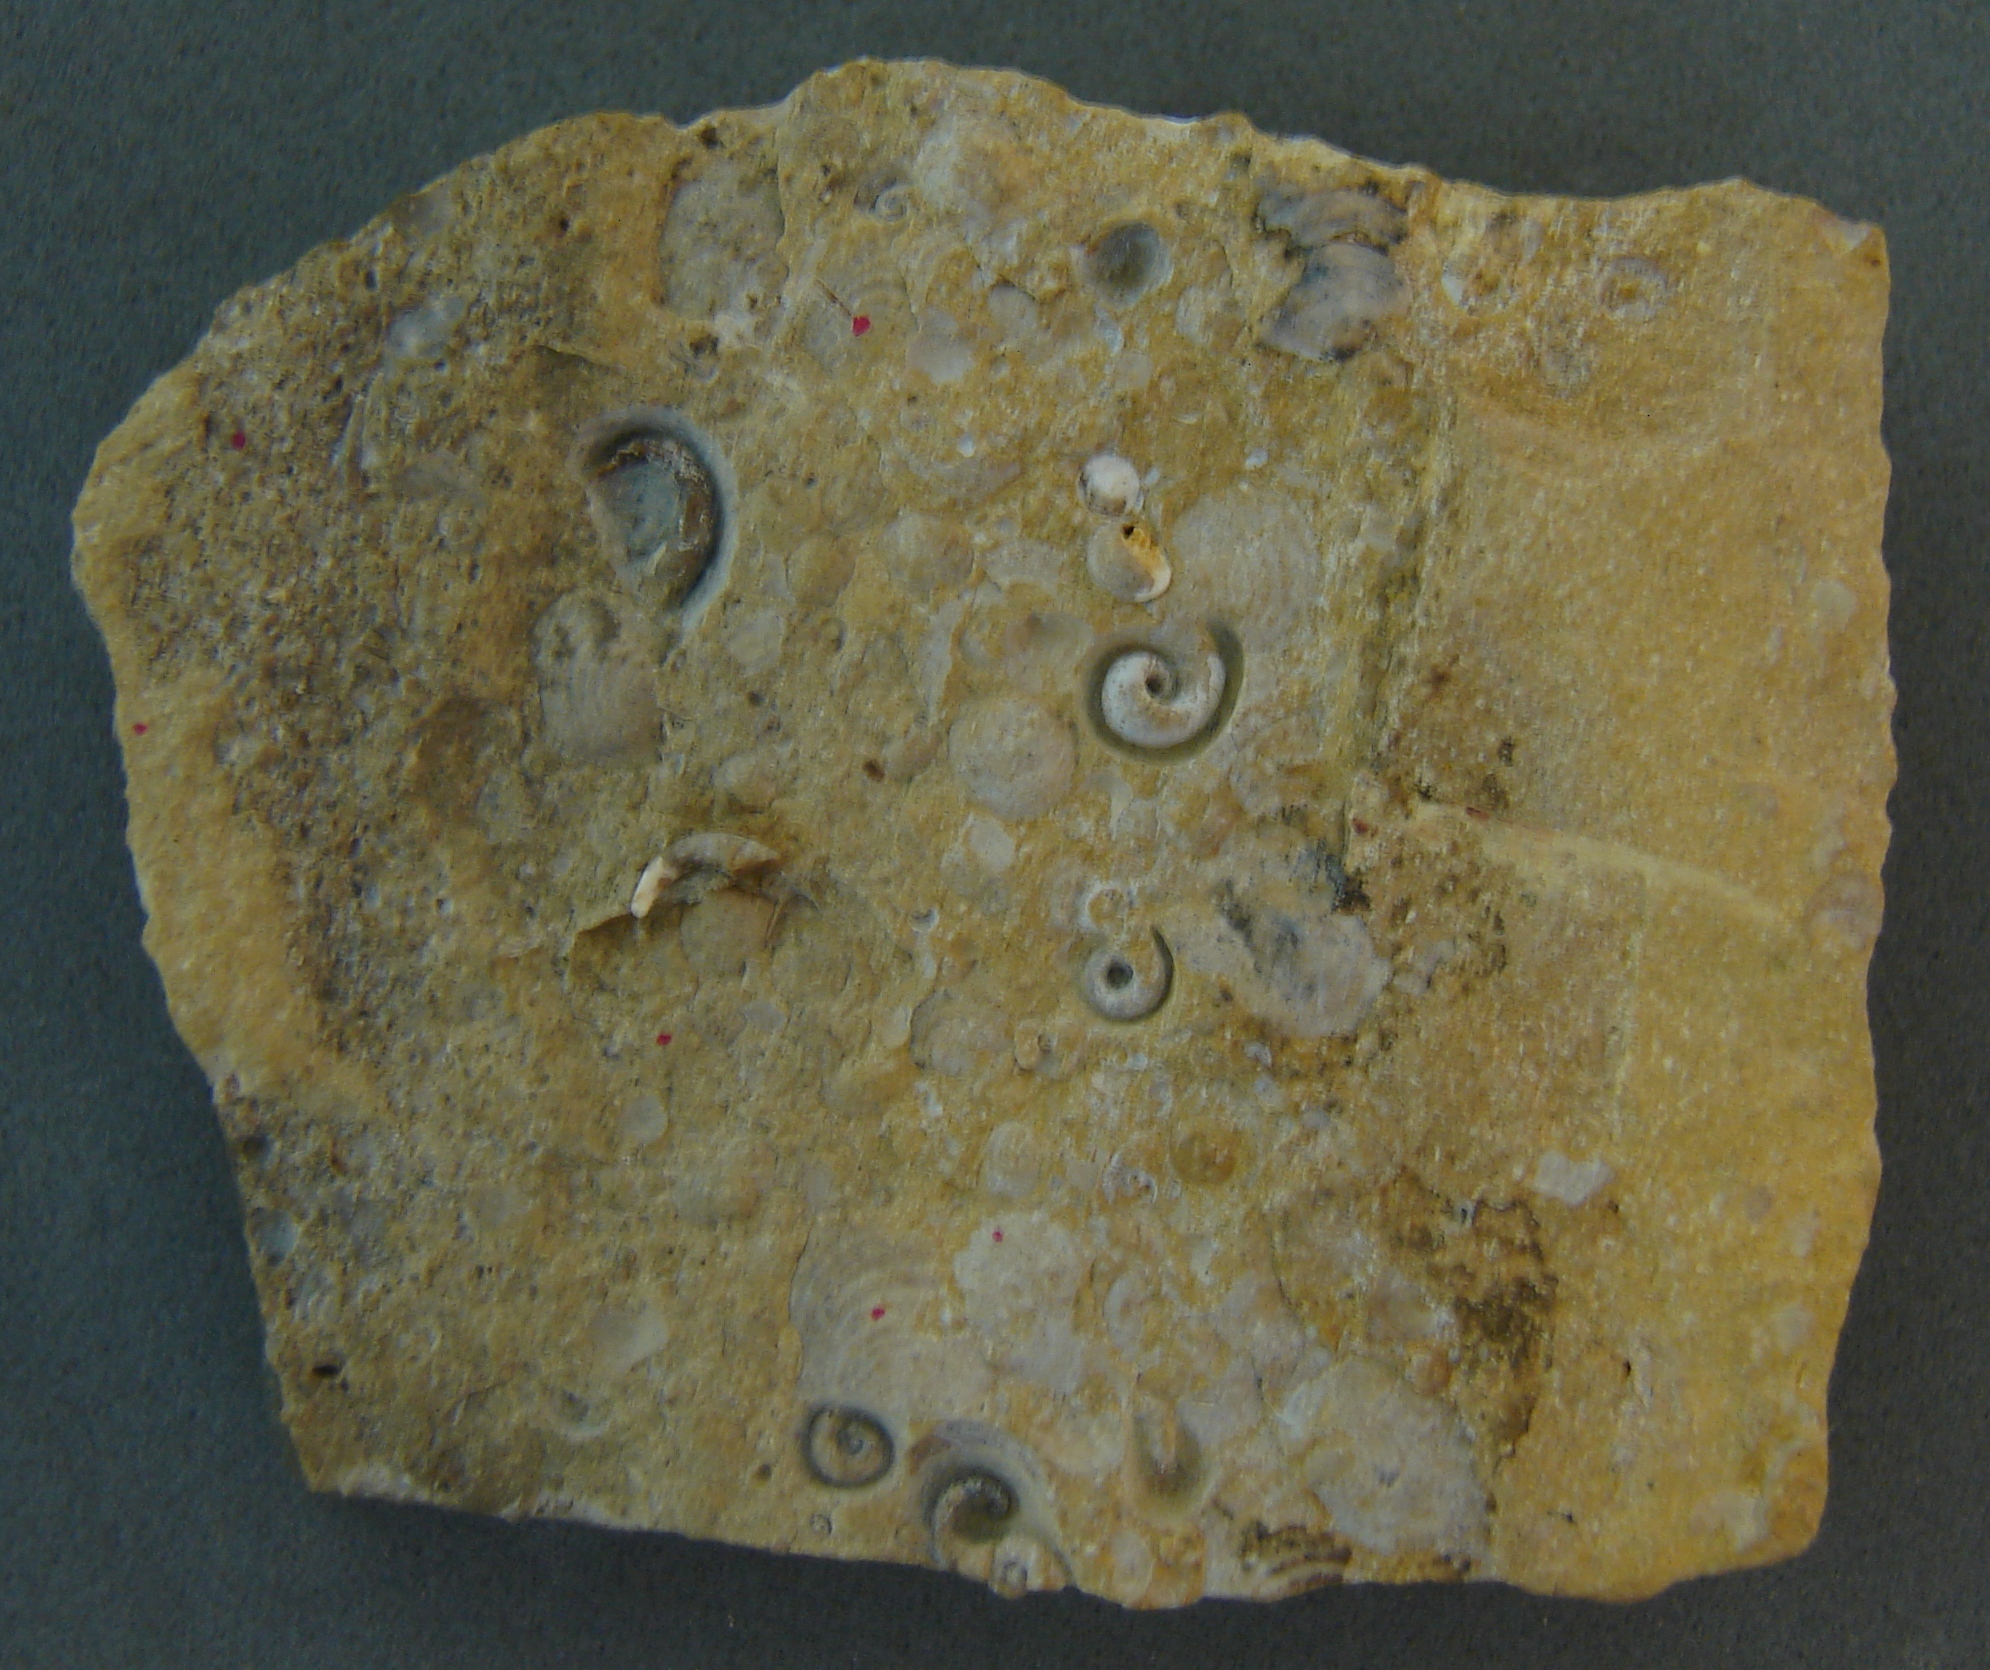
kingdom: Animalia
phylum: Mollusca
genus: Simoniceras
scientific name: Simoniceras
